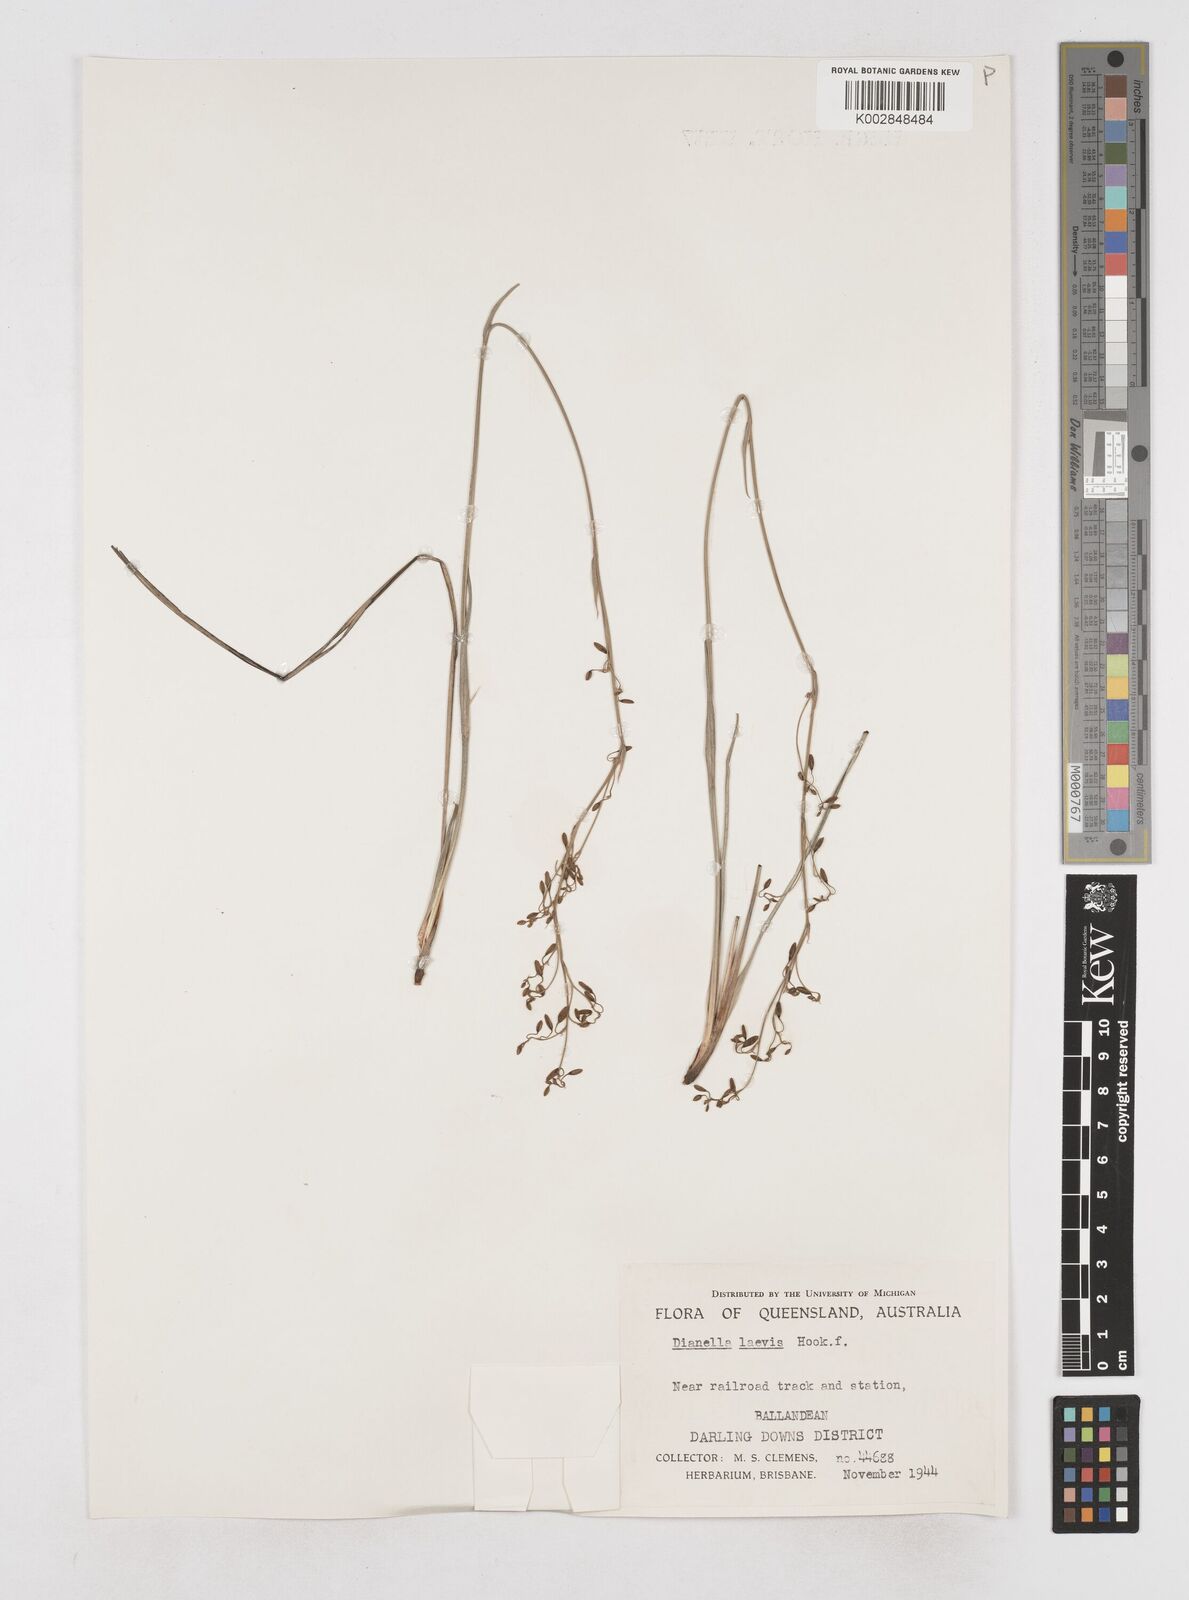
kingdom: Plantae
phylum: Tracheophyta
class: Liliopsida
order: Asparagales
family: Asphodelaceae
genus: Dianella
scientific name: Dianella longifolia
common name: Blue flax-lily
